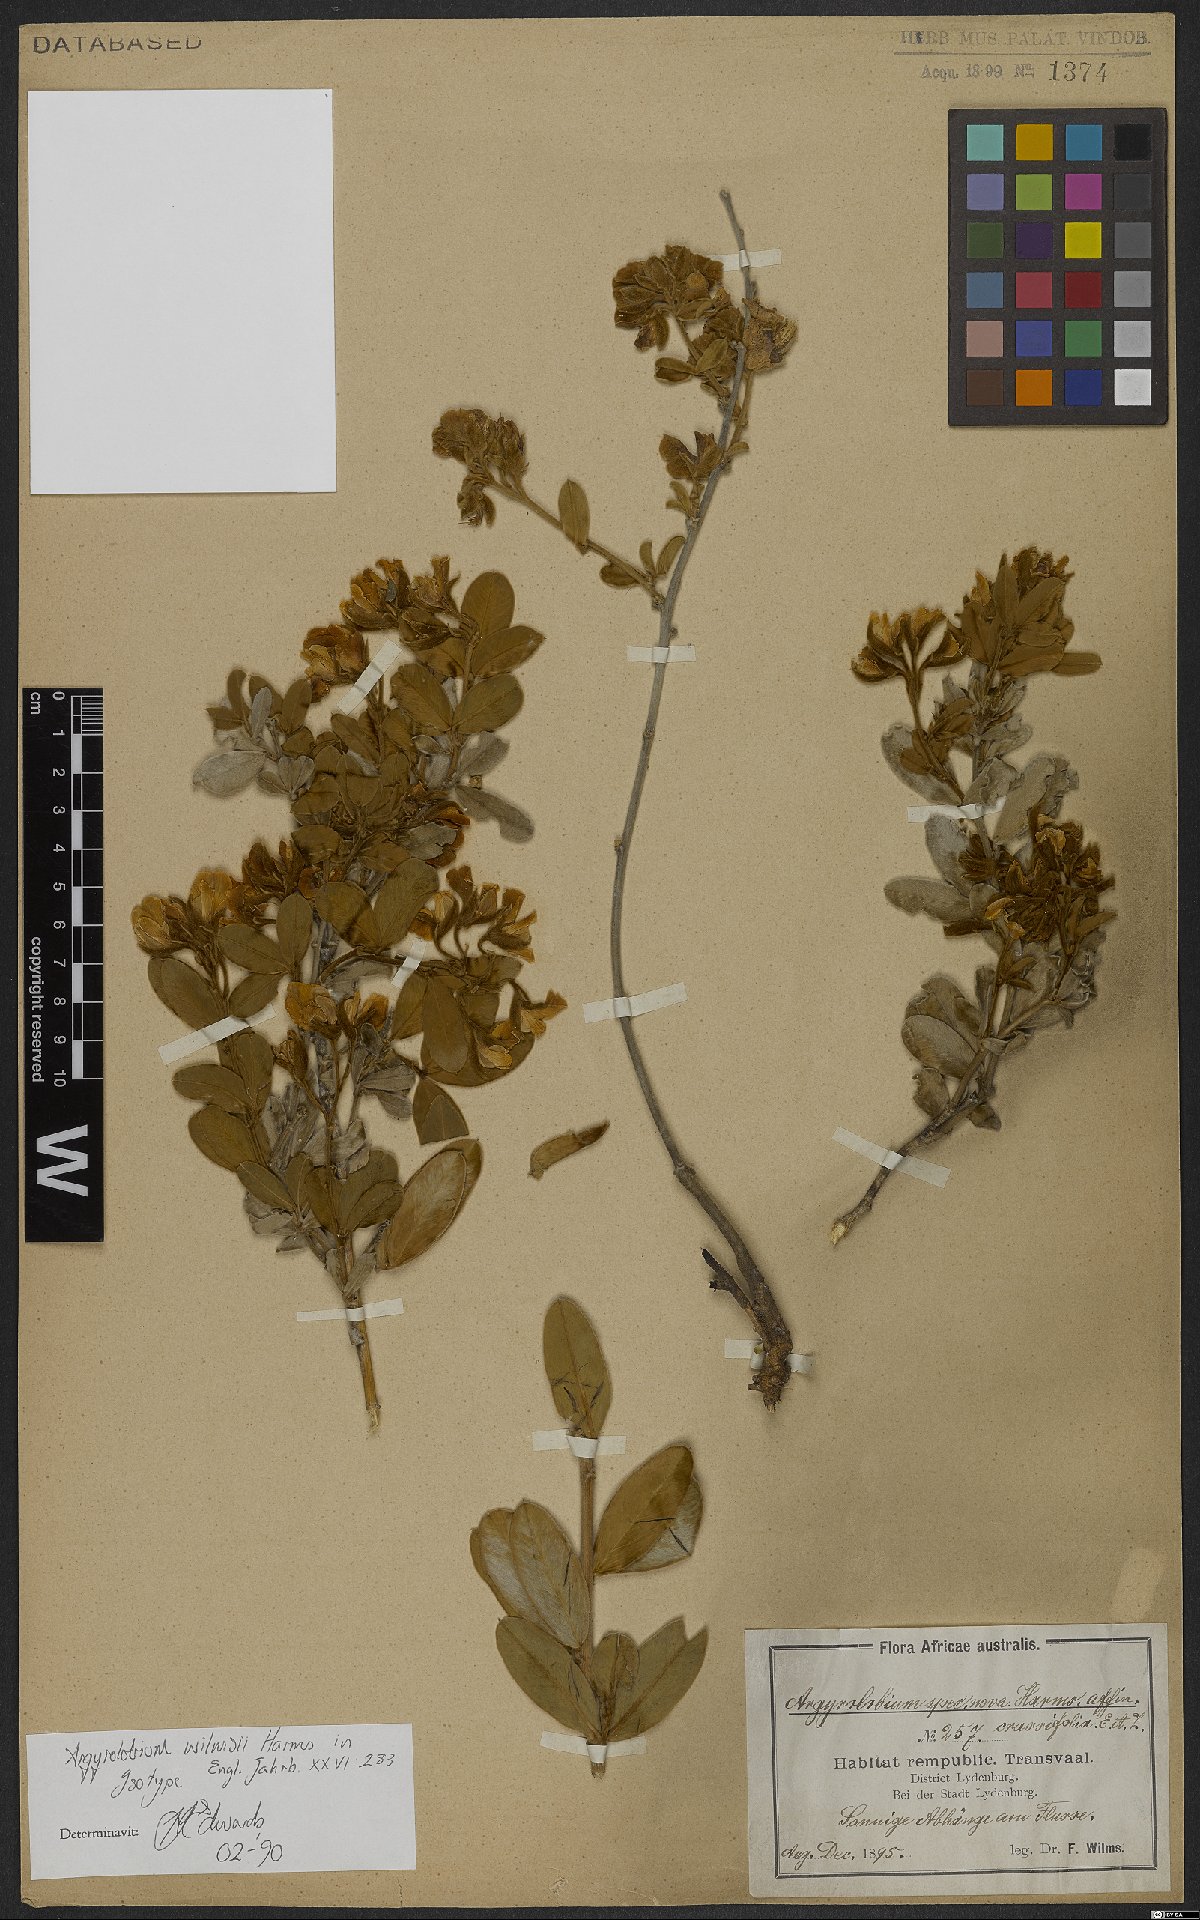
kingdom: Plantae
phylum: Tracheophyta
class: Magnoliopsida
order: Fabales
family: Fabaceae
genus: Argyrolobium
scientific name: Argyrolobium wilmsii
